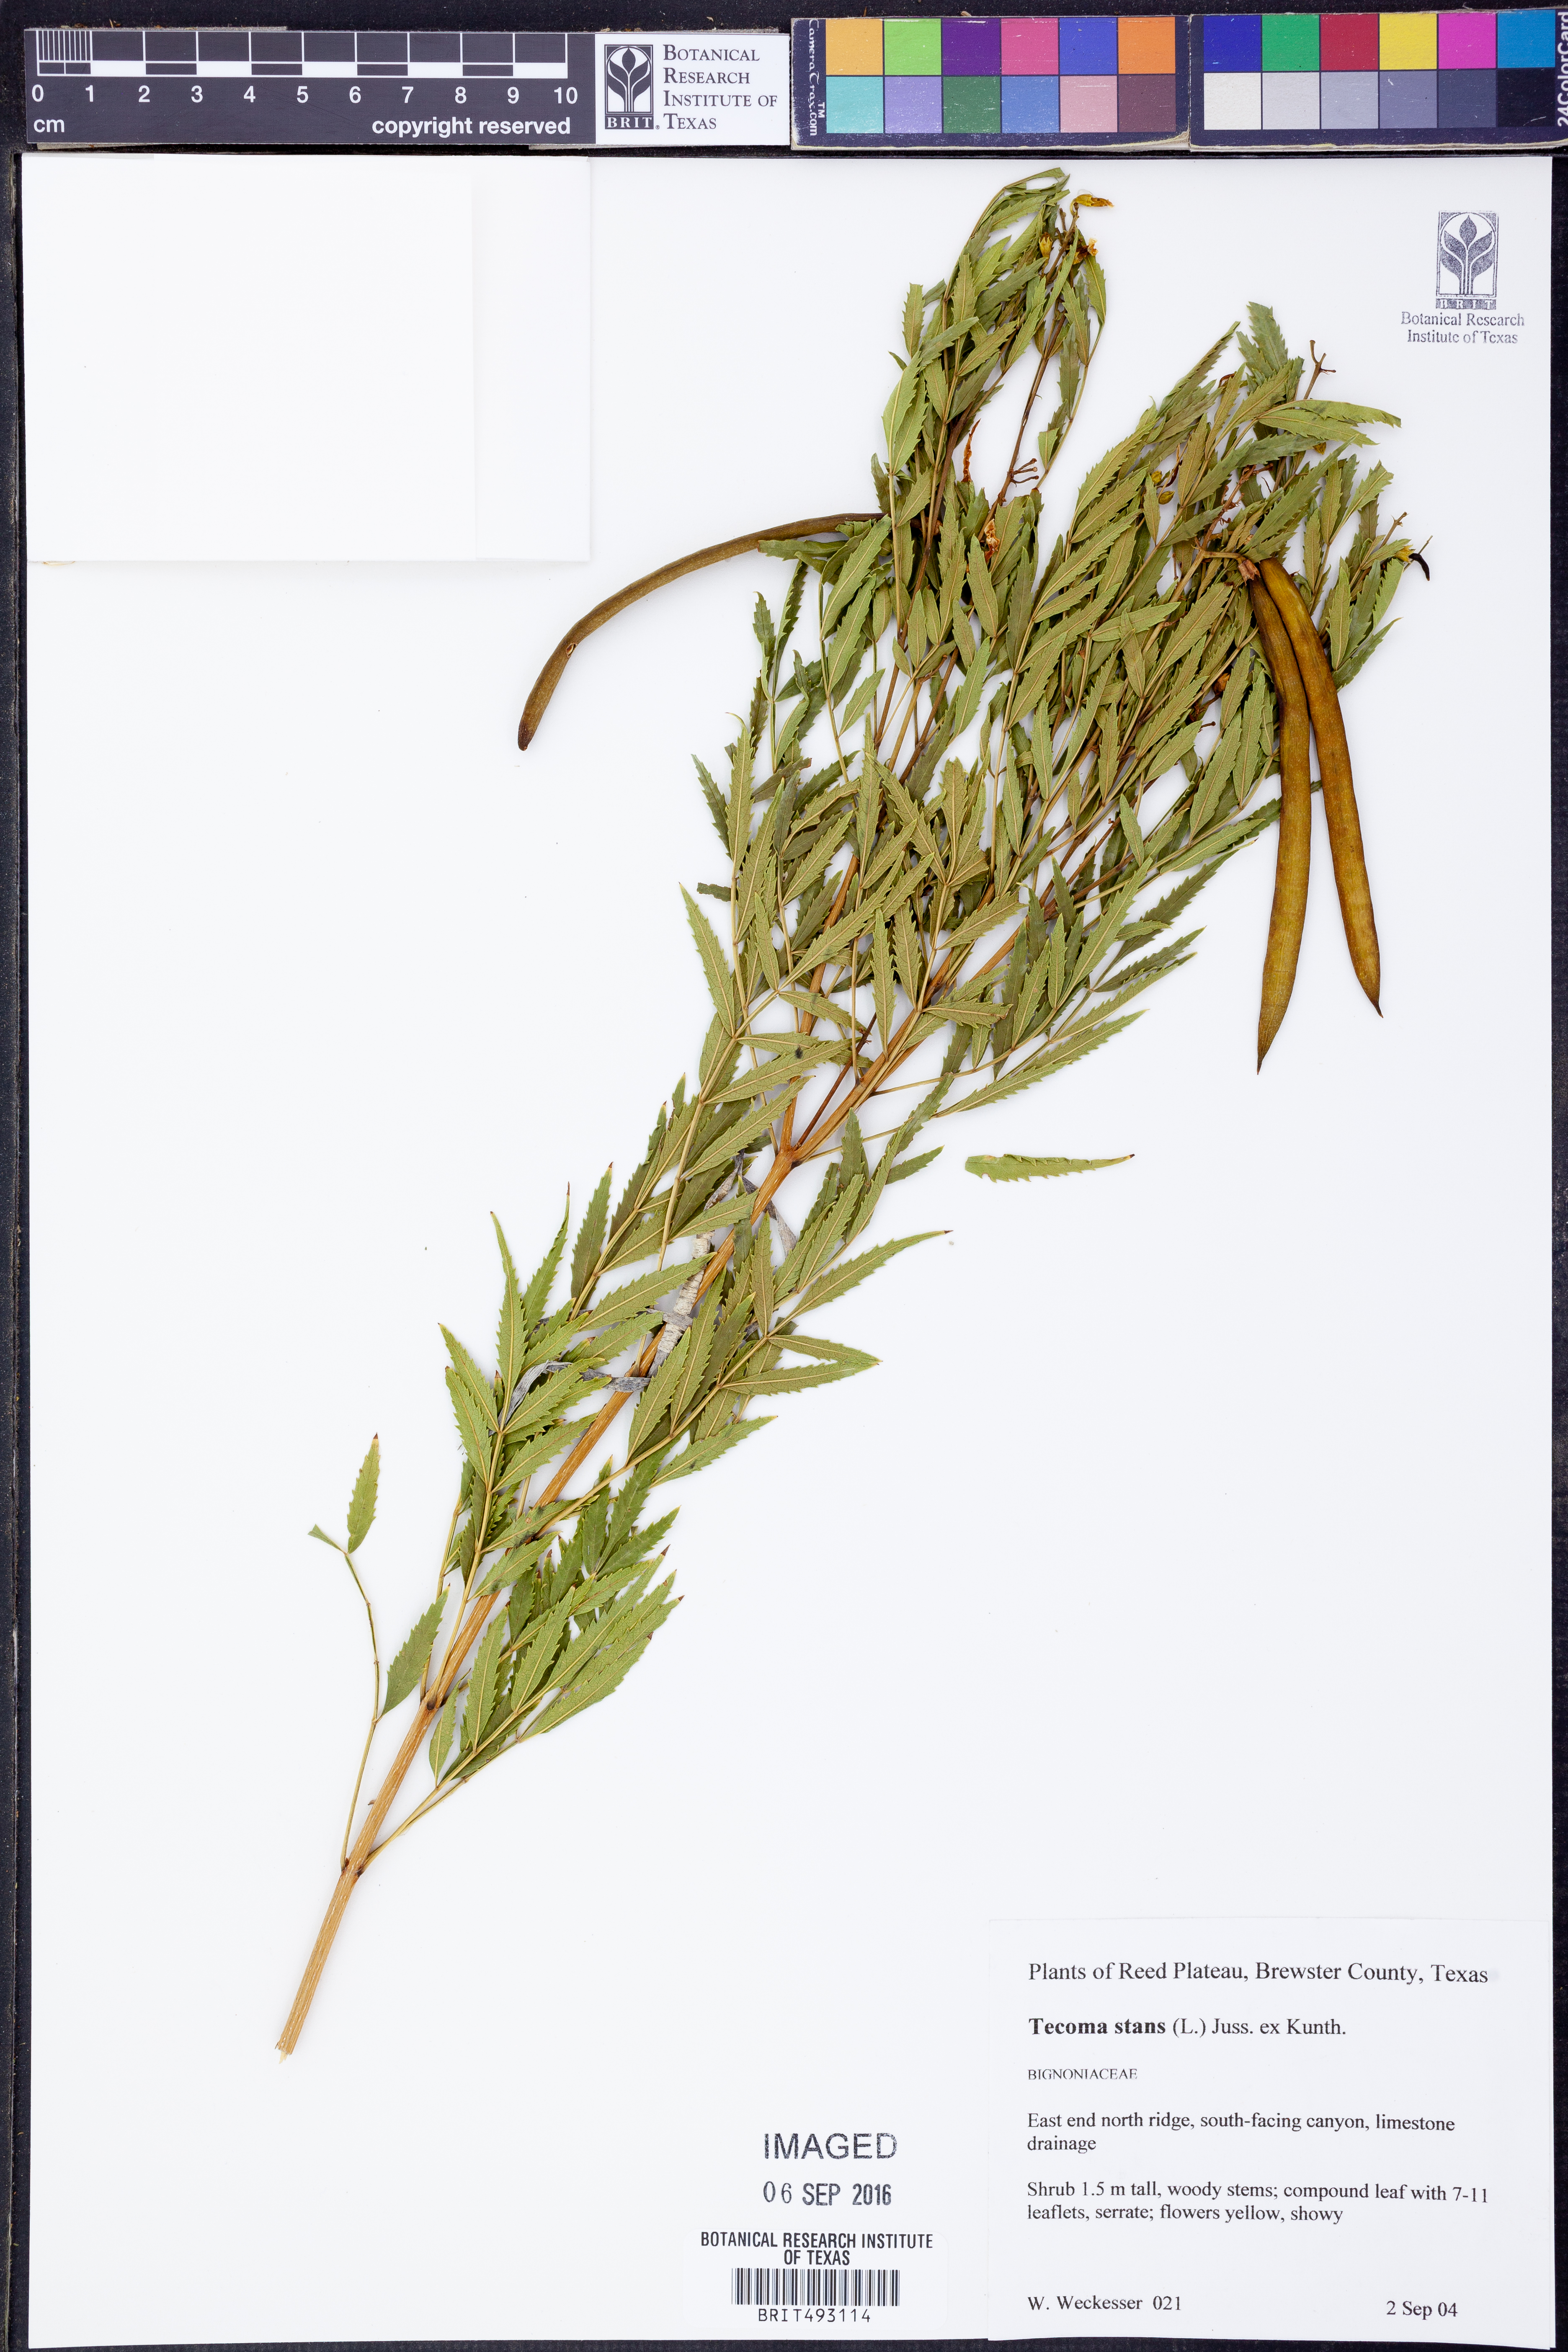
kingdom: Plantae
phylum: Tracheophyta
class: Magnoliopsida
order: Lamiales
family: Bignoniaceae
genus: Tecoma
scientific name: Tecoma stans
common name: Yellow trumpetbush
